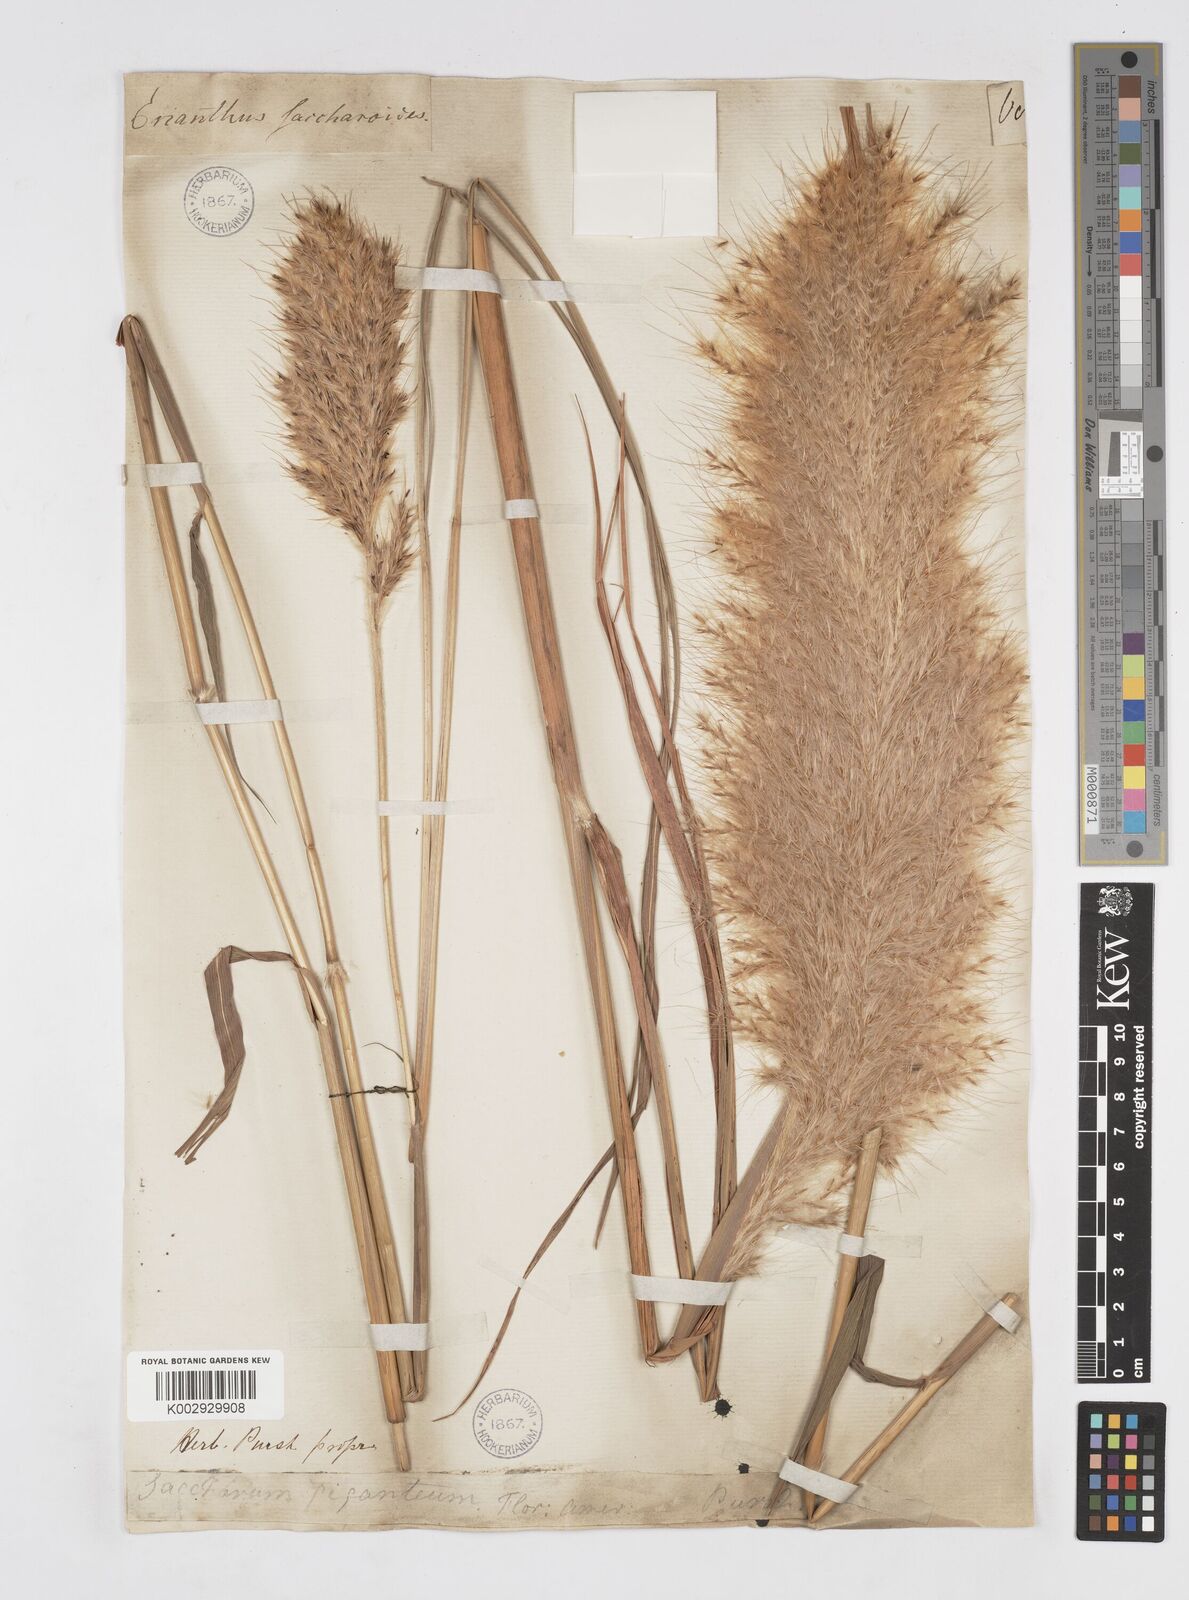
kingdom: Plantae
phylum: Tracheophyta
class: Liliopsida
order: Poales
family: Poaceae
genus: Saccharum
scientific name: Saccharum
